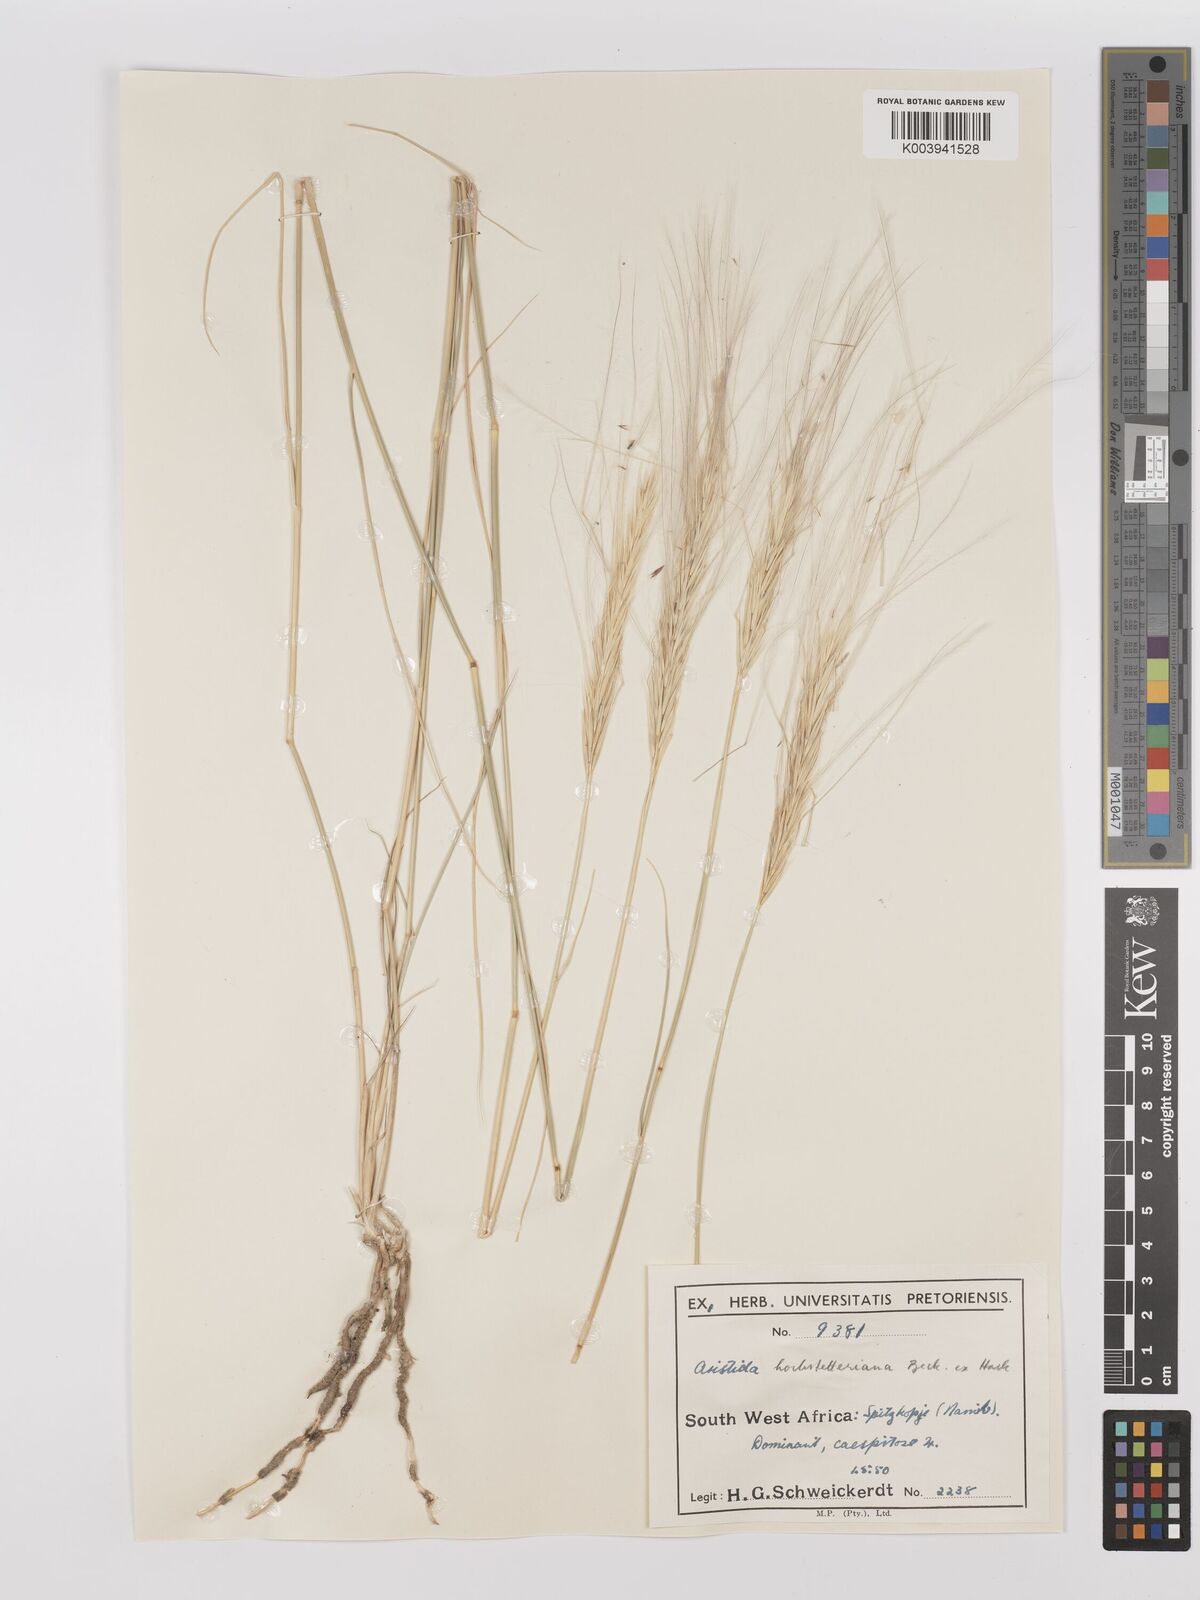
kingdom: Plantae
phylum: Tracheophyta
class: Liliopsida
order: Poales
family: Poaceae
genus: Stipagrostis
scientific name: Stipagrostis hochstetteriana
